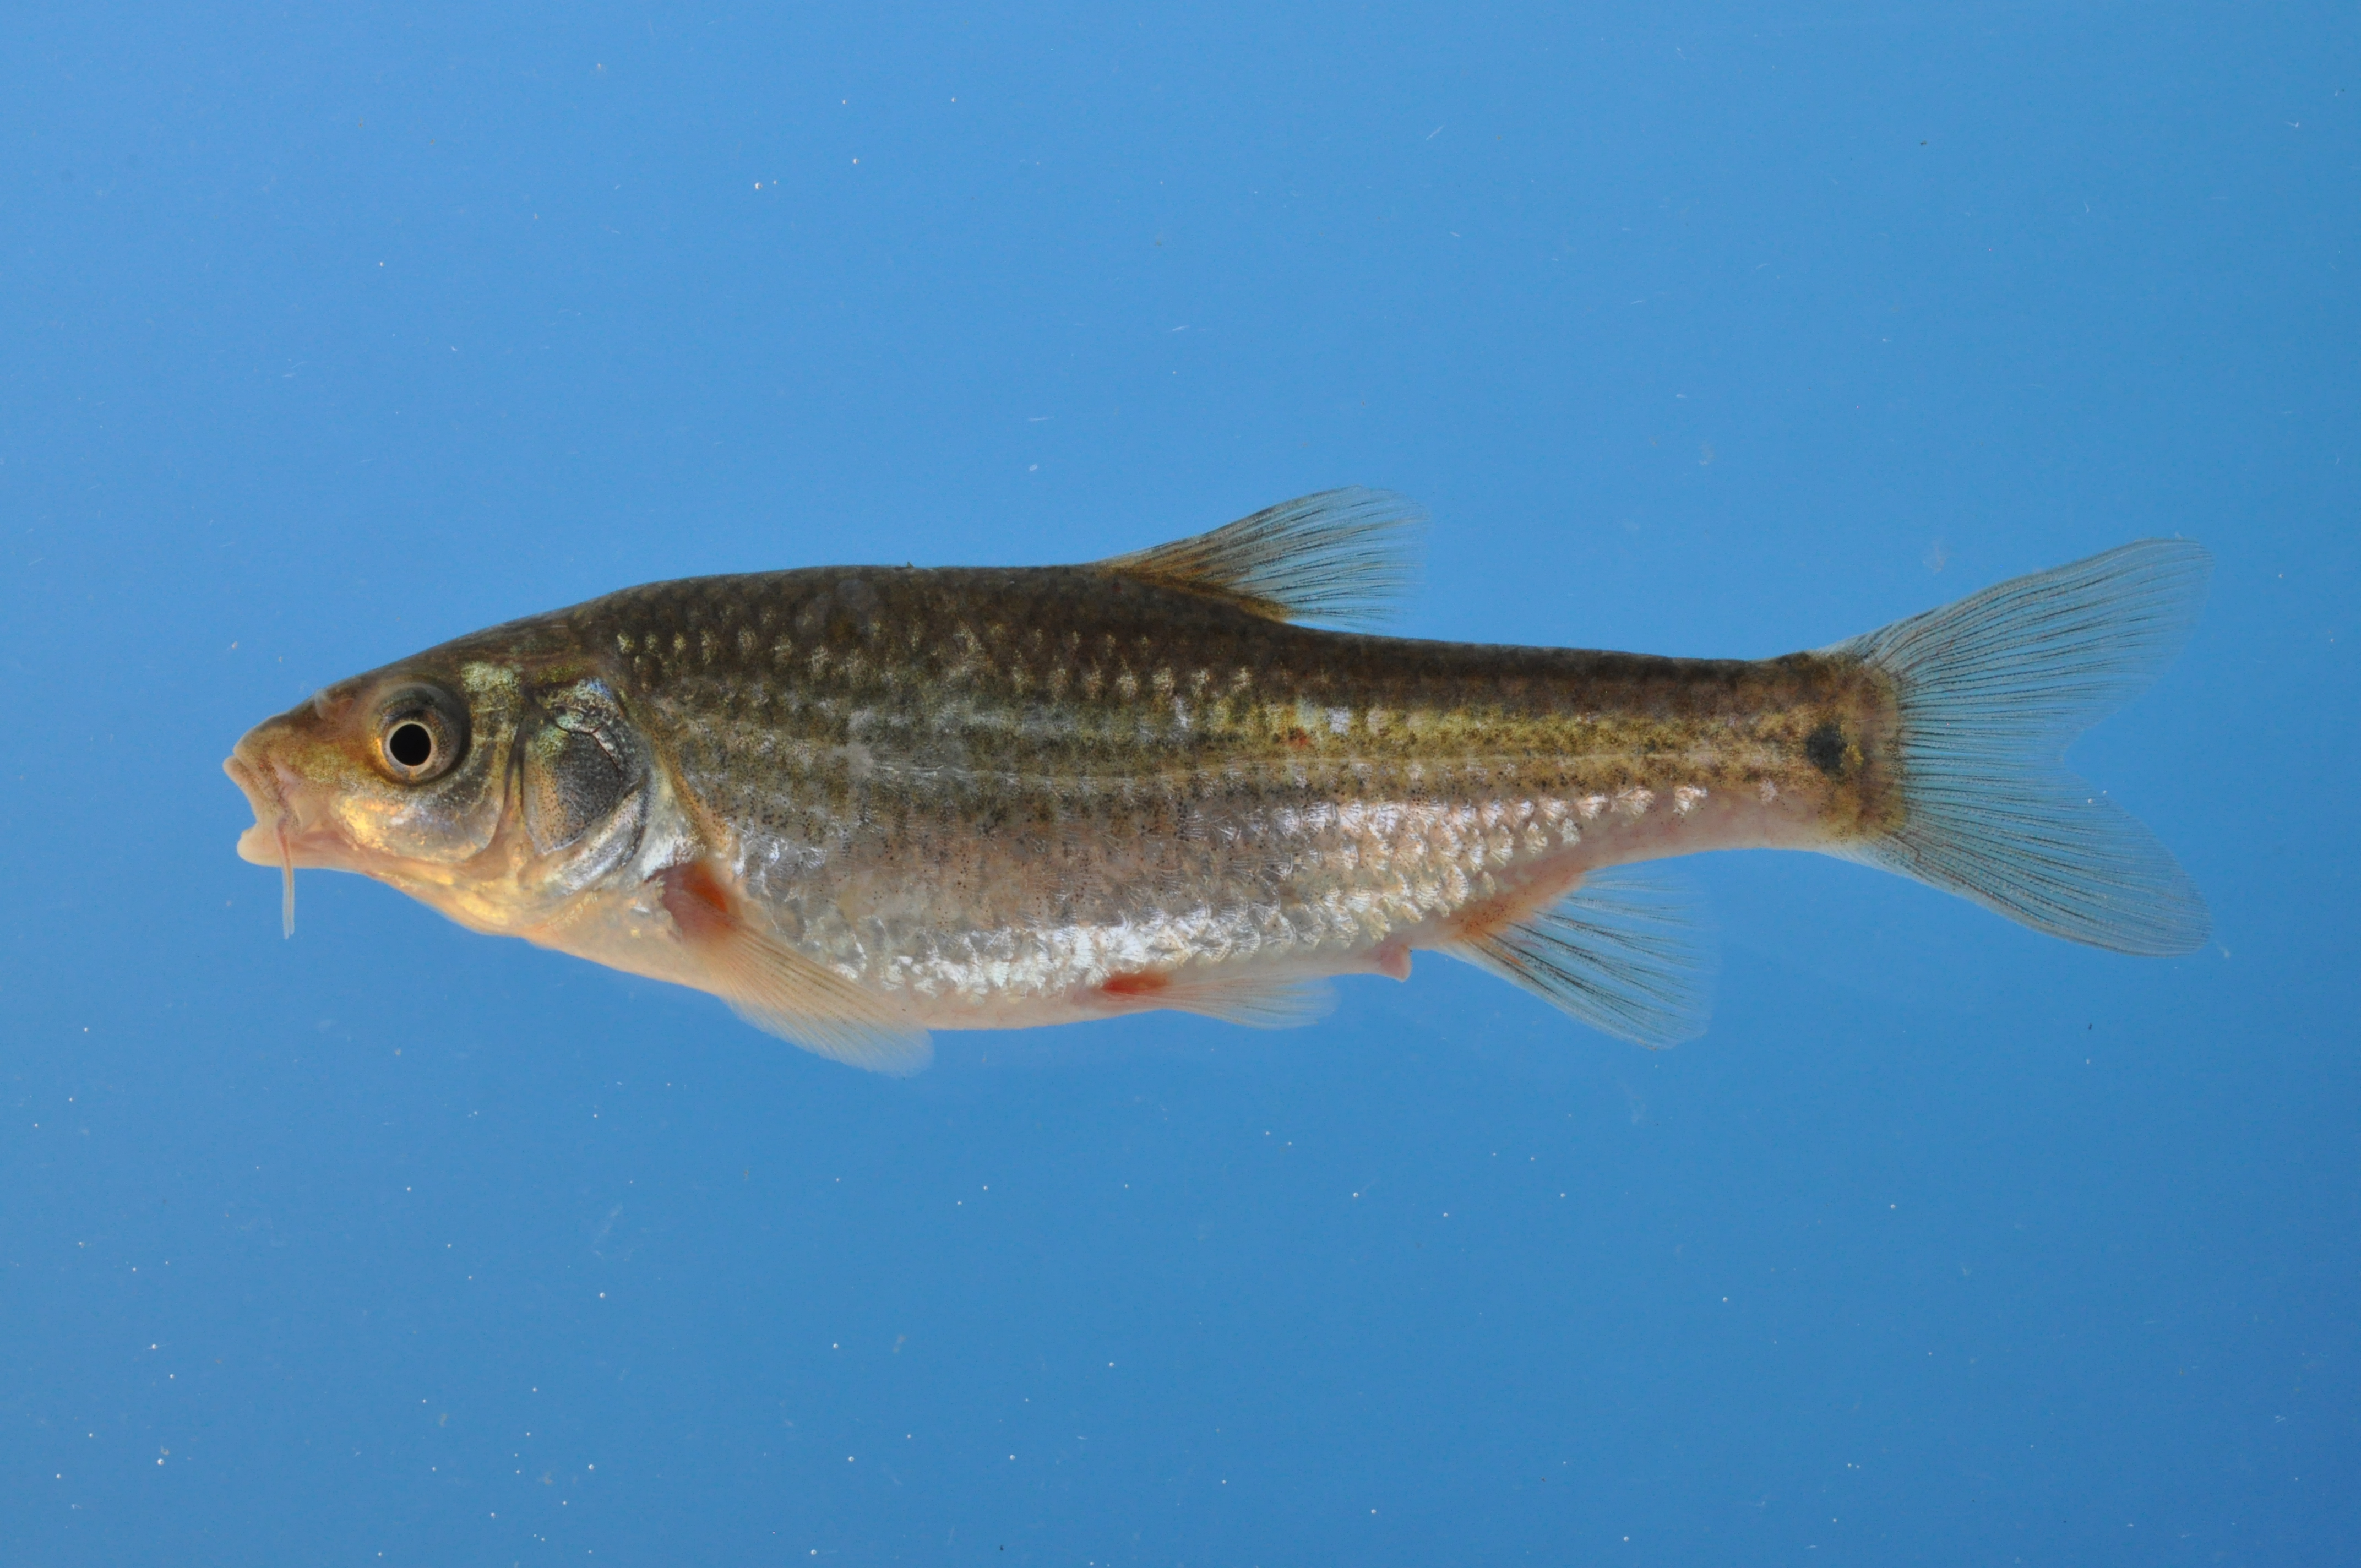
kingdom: Animalia
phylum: Chordata
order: Cypriniformes
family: Cyprinidae
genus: Pseudobarbus
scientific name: Pseudobarbus verloreni
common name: Verlorenvlei redfin
